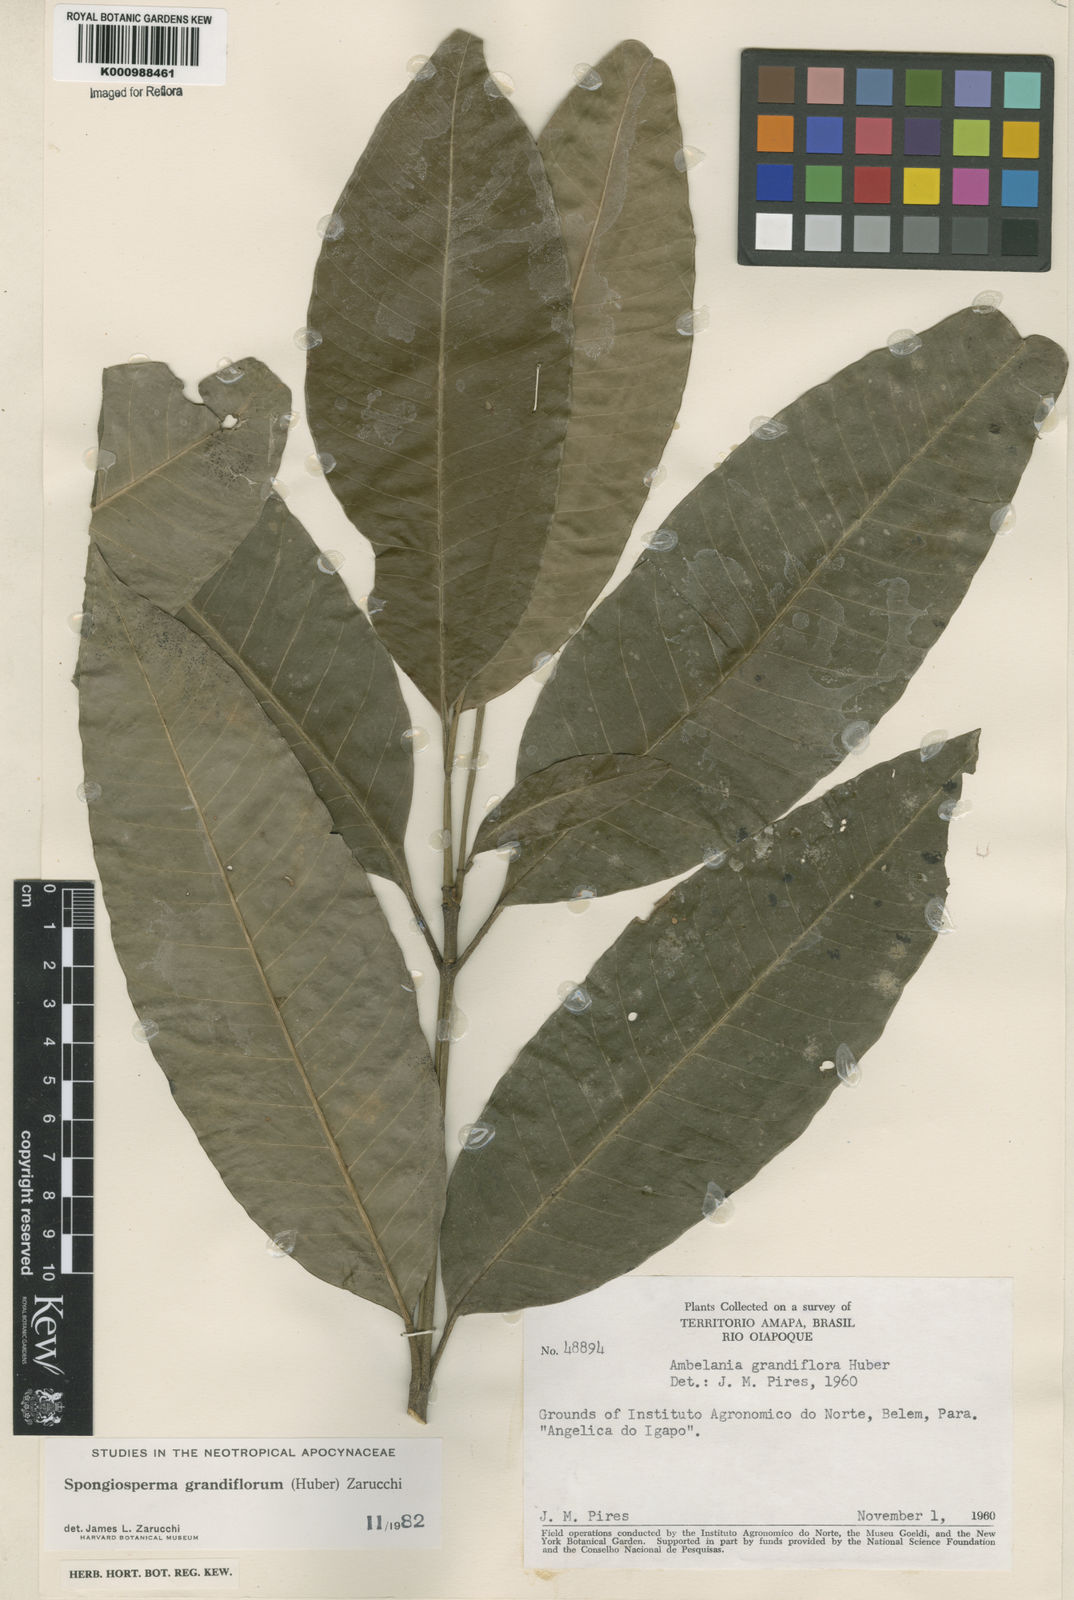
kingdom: Plantae
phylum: Tracheophyta
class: Magnoliopsida
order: Gentianales
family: Apocynaceae
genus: Aspidosperma
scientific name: Aspidosperma
